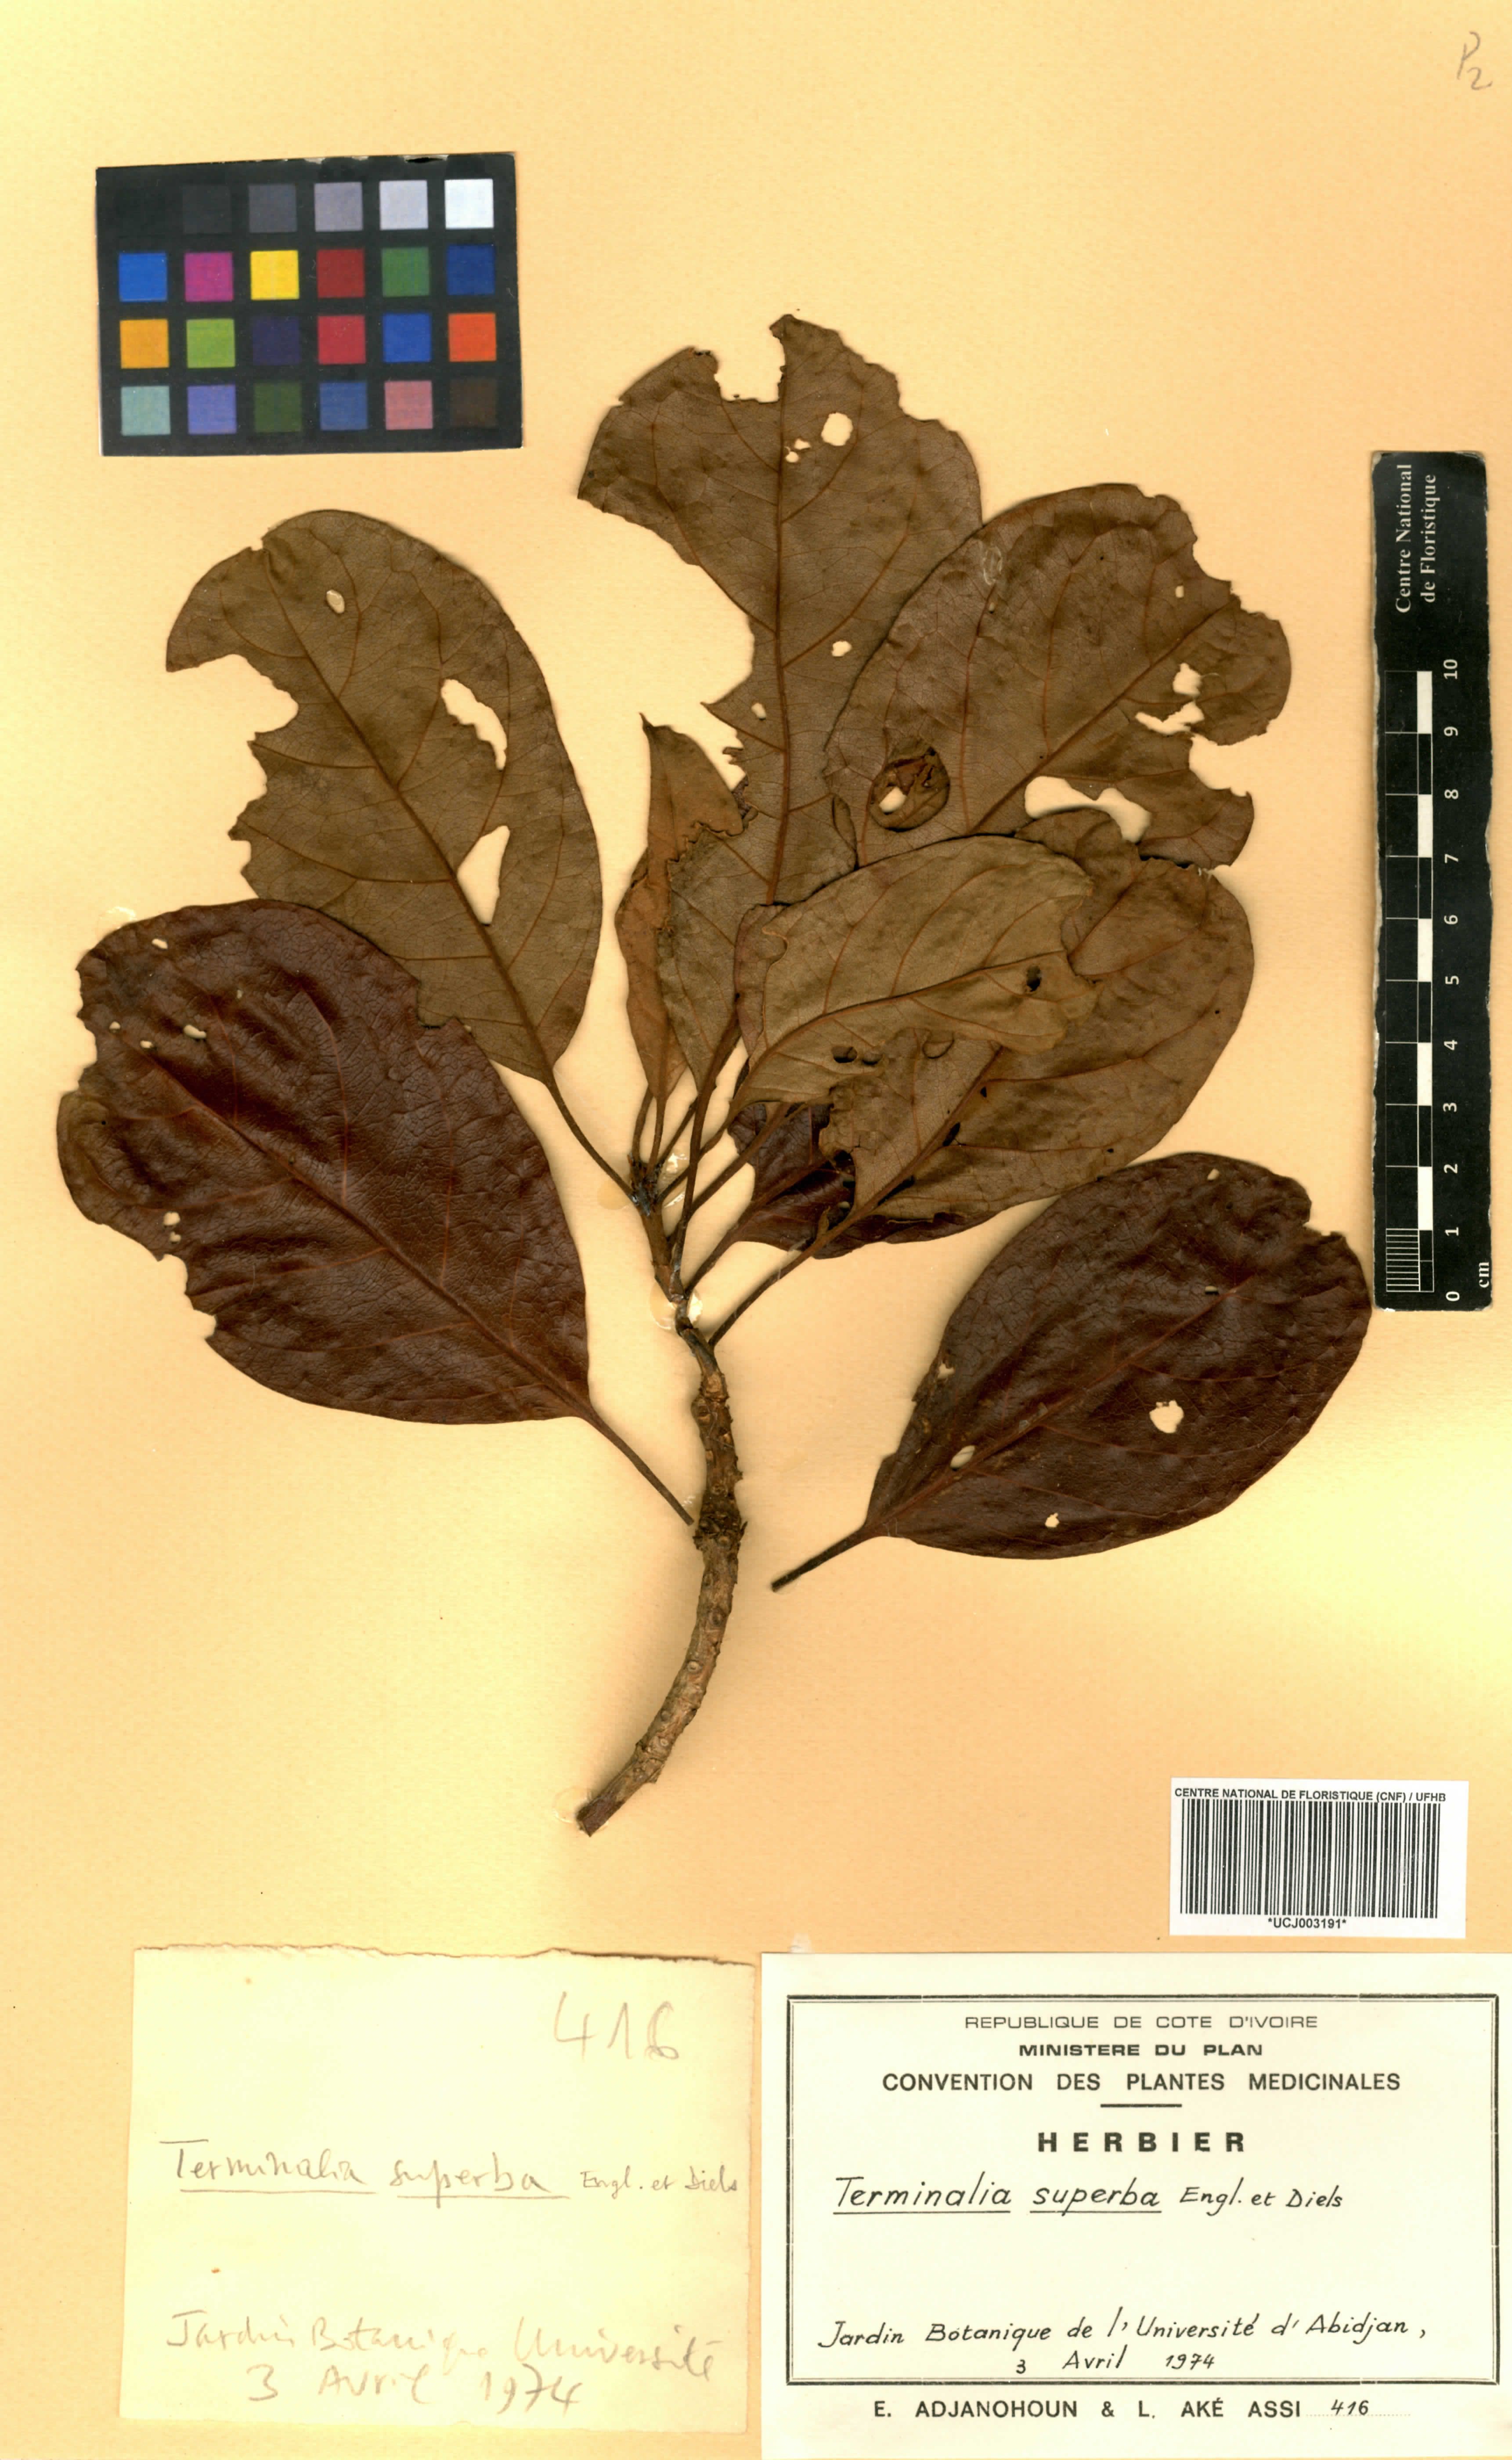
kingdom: Plantae
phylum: Tracheophyta
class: Magnoliopsida
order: Myrtales
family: Combretaceae
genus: Terminalia
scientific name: Terminalia superba
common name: White afara
